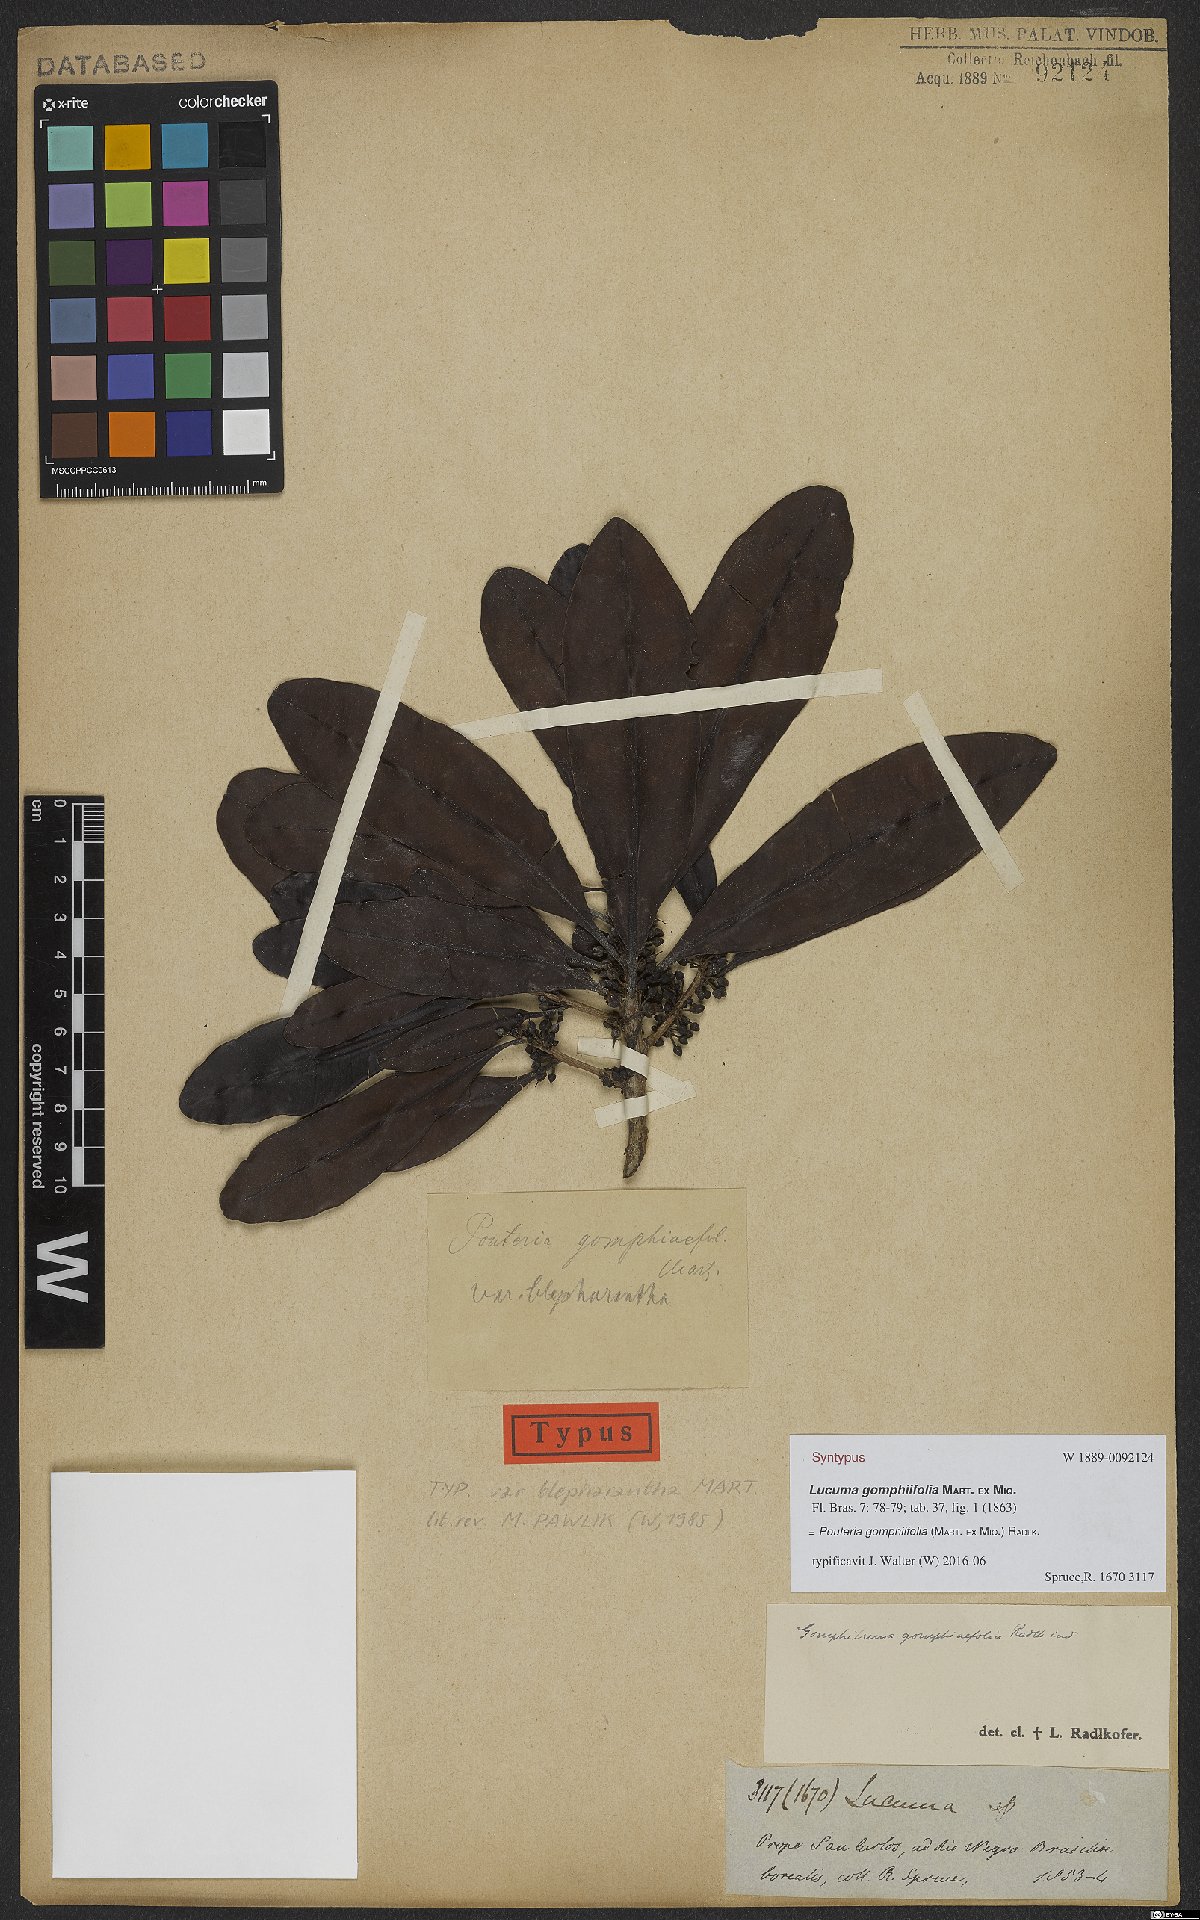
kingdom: Plantae
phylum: Tracheophyta
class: Magnoliopsida
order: Ericales
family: Sapotaceae
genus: Pouteria
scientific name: Pouteria gomphiifolia
